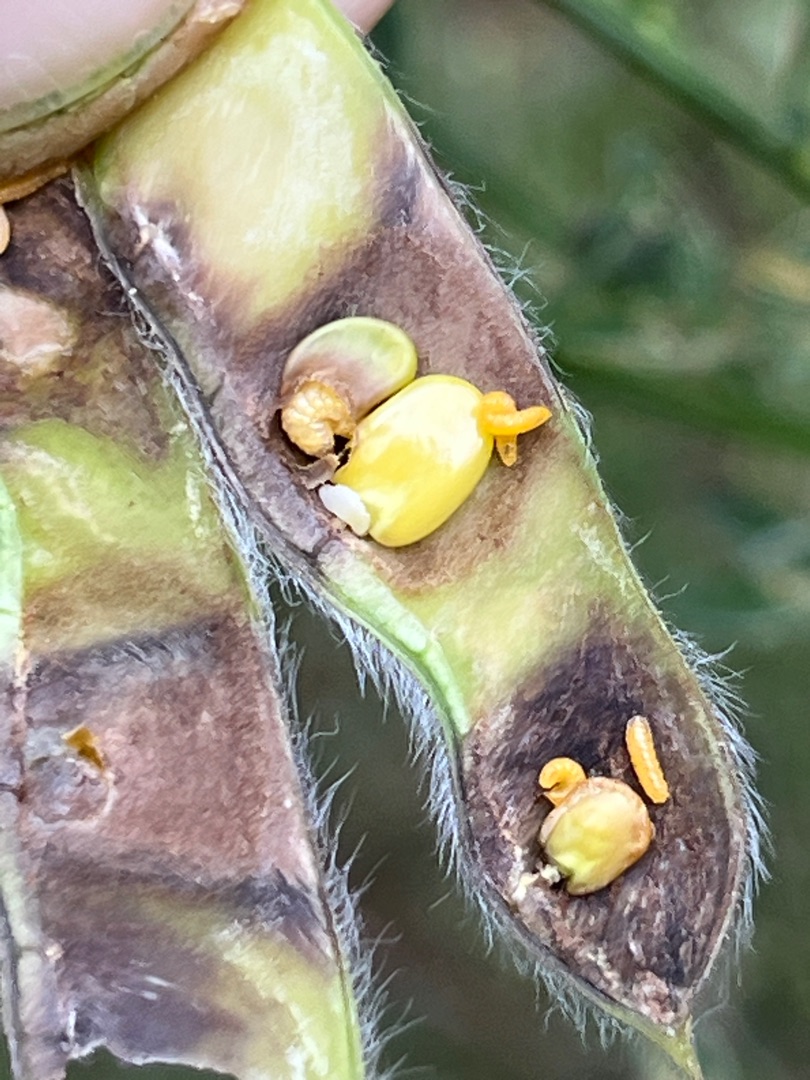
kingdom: Animalia
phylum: Arthropoda
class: Insecta
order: Diptera
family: Cecidomyiidae
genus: Contarinia
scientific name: Contarinia pulchripes
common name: Gyvelbælggalmyg
